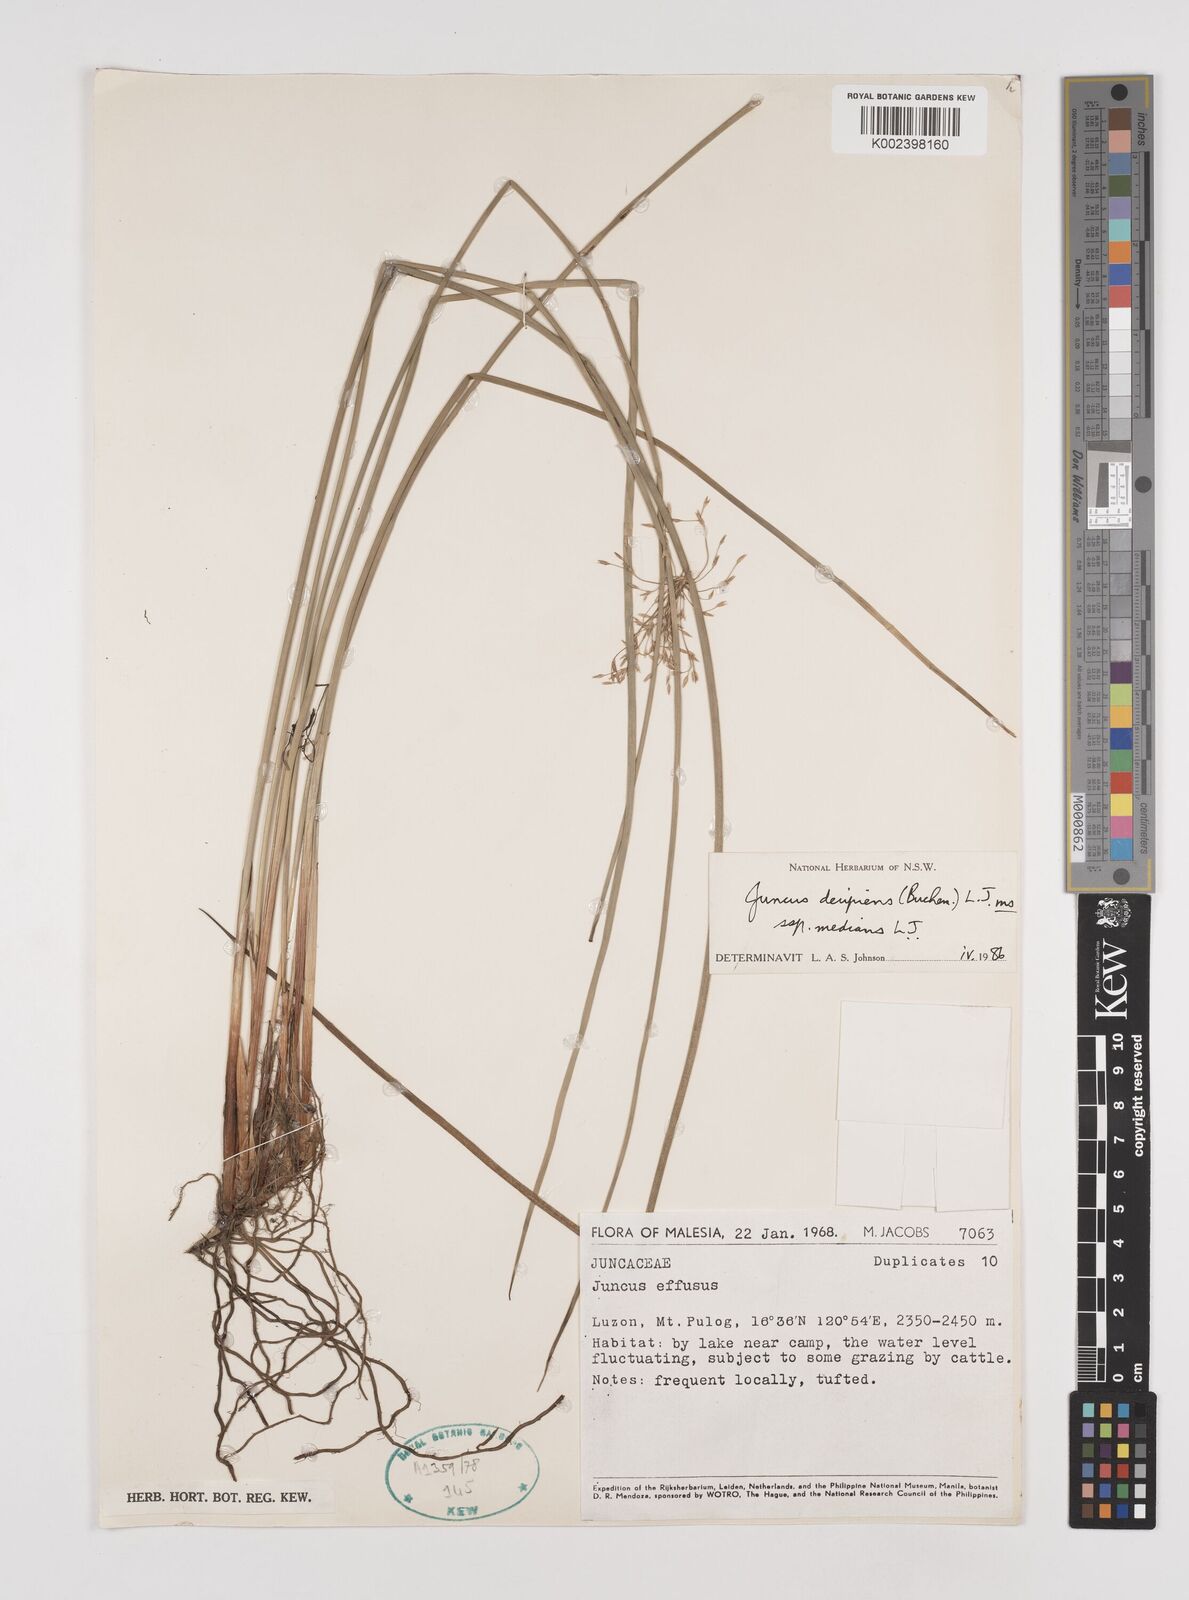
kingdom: Plantae
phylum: Tracheophyta
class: Liliopsida
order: Poales
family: Juncaceae
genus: Juncus
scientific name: Juncus decipiens
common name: Lamp rush
